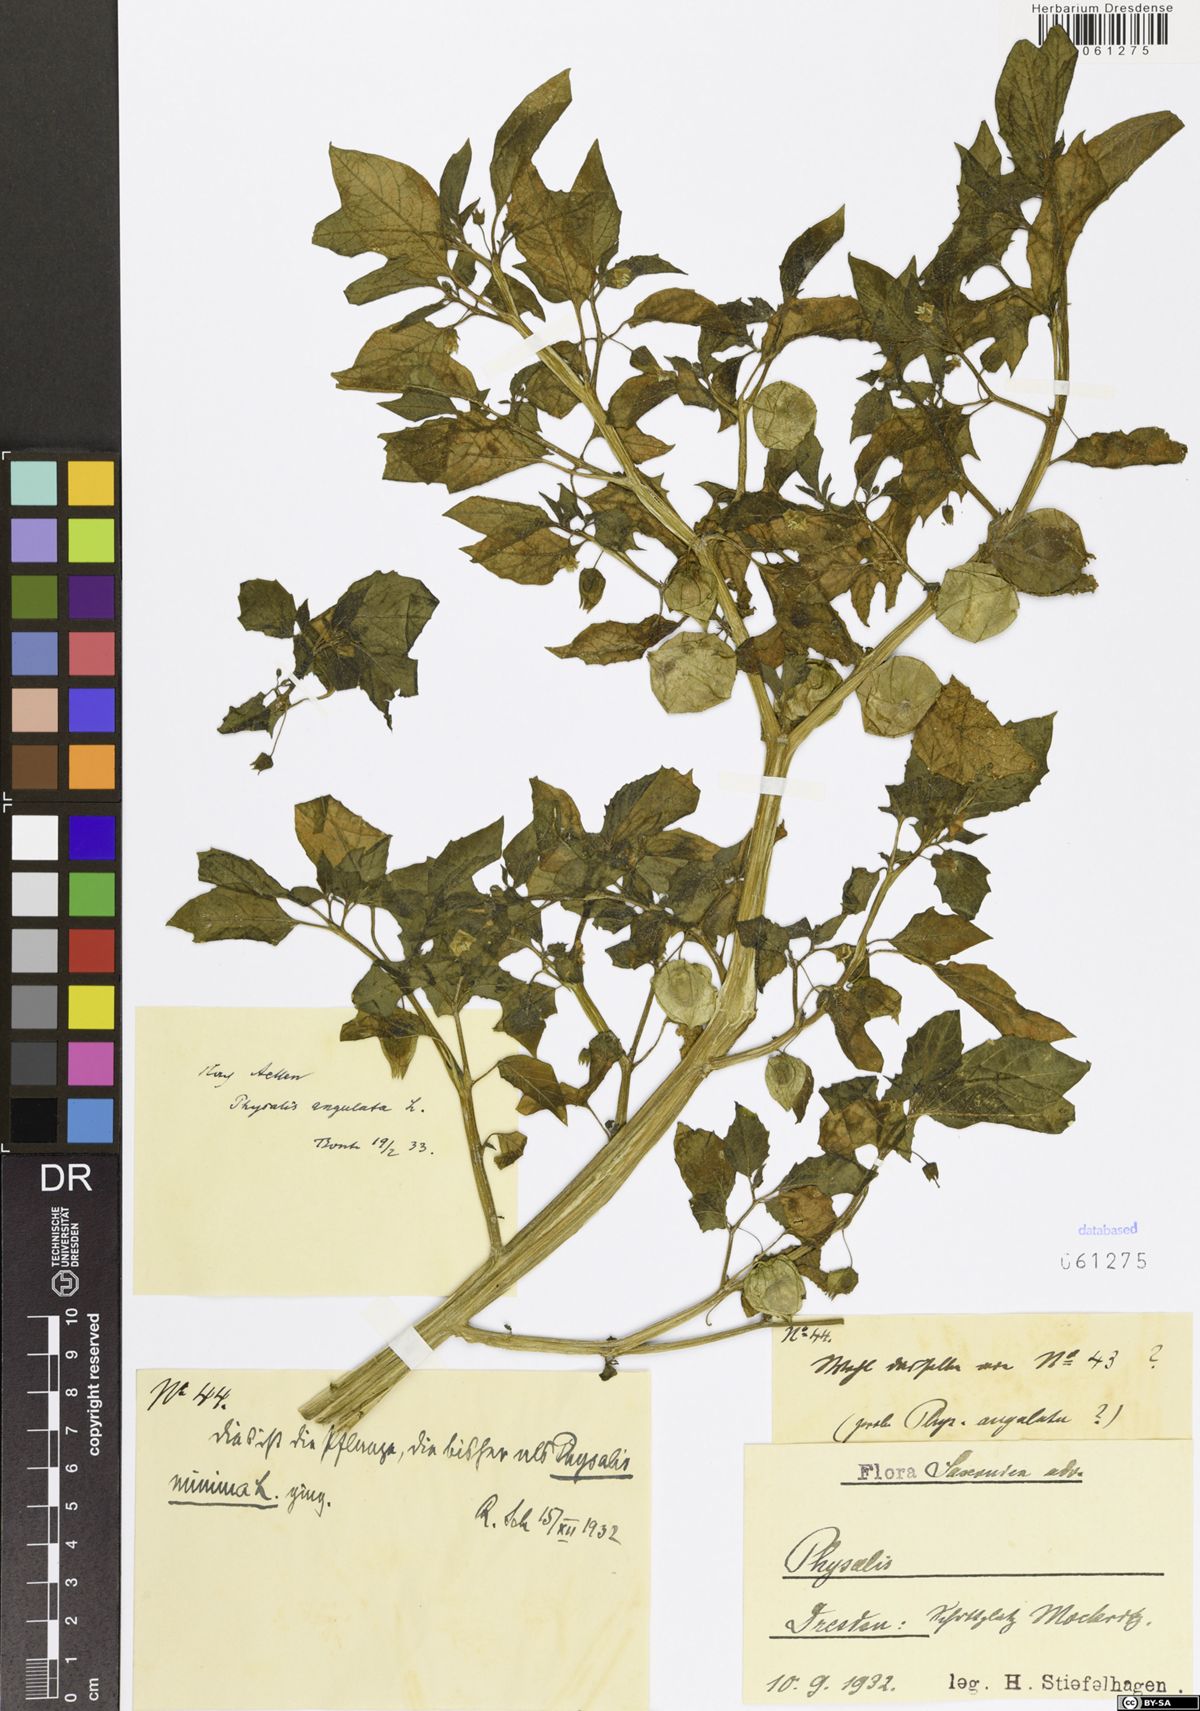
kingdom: Plantae
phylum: Tracheophyta
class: Magnoliopsida
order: Solanales
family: Solanaceae
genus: Physalis
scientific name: Physalis angulata
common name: Angular winter-cherry
